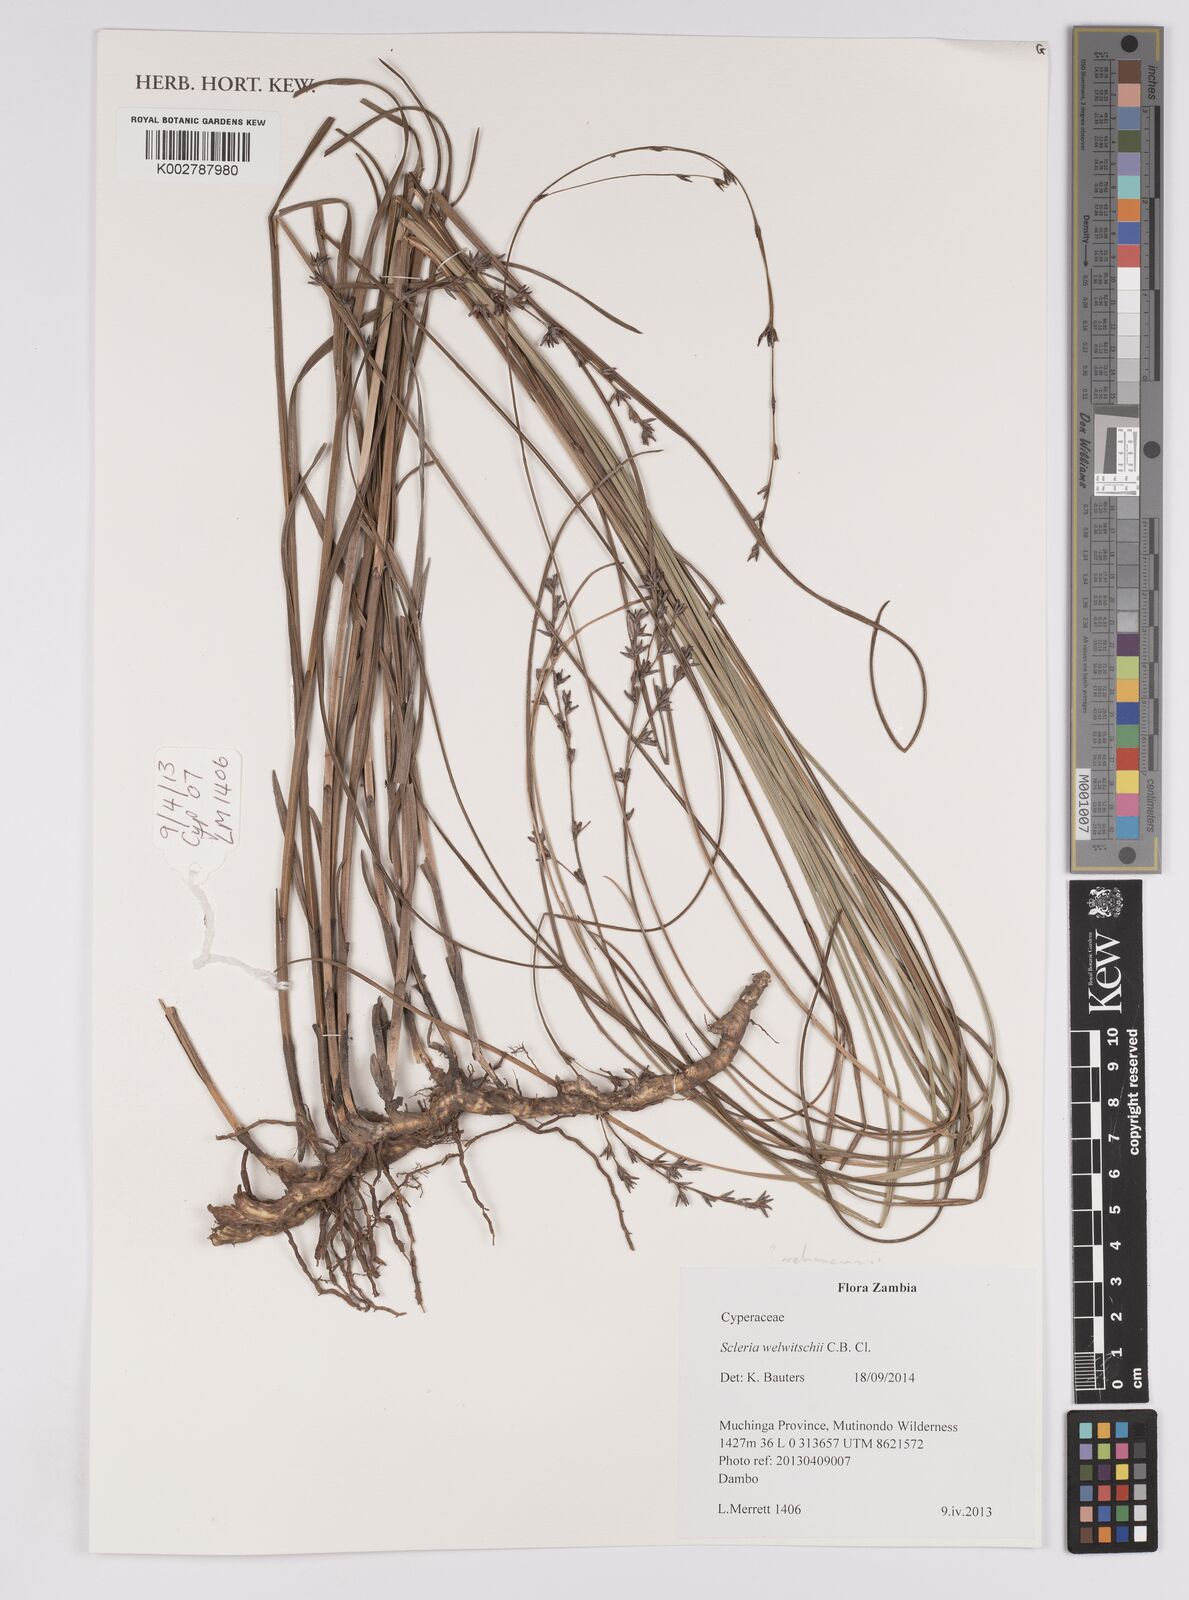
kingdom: Plantae
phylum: Tracheophyta
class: Liliopsida
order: Poales
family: Cyperaceae
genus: Scleria
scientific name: Scleria rehmannii
